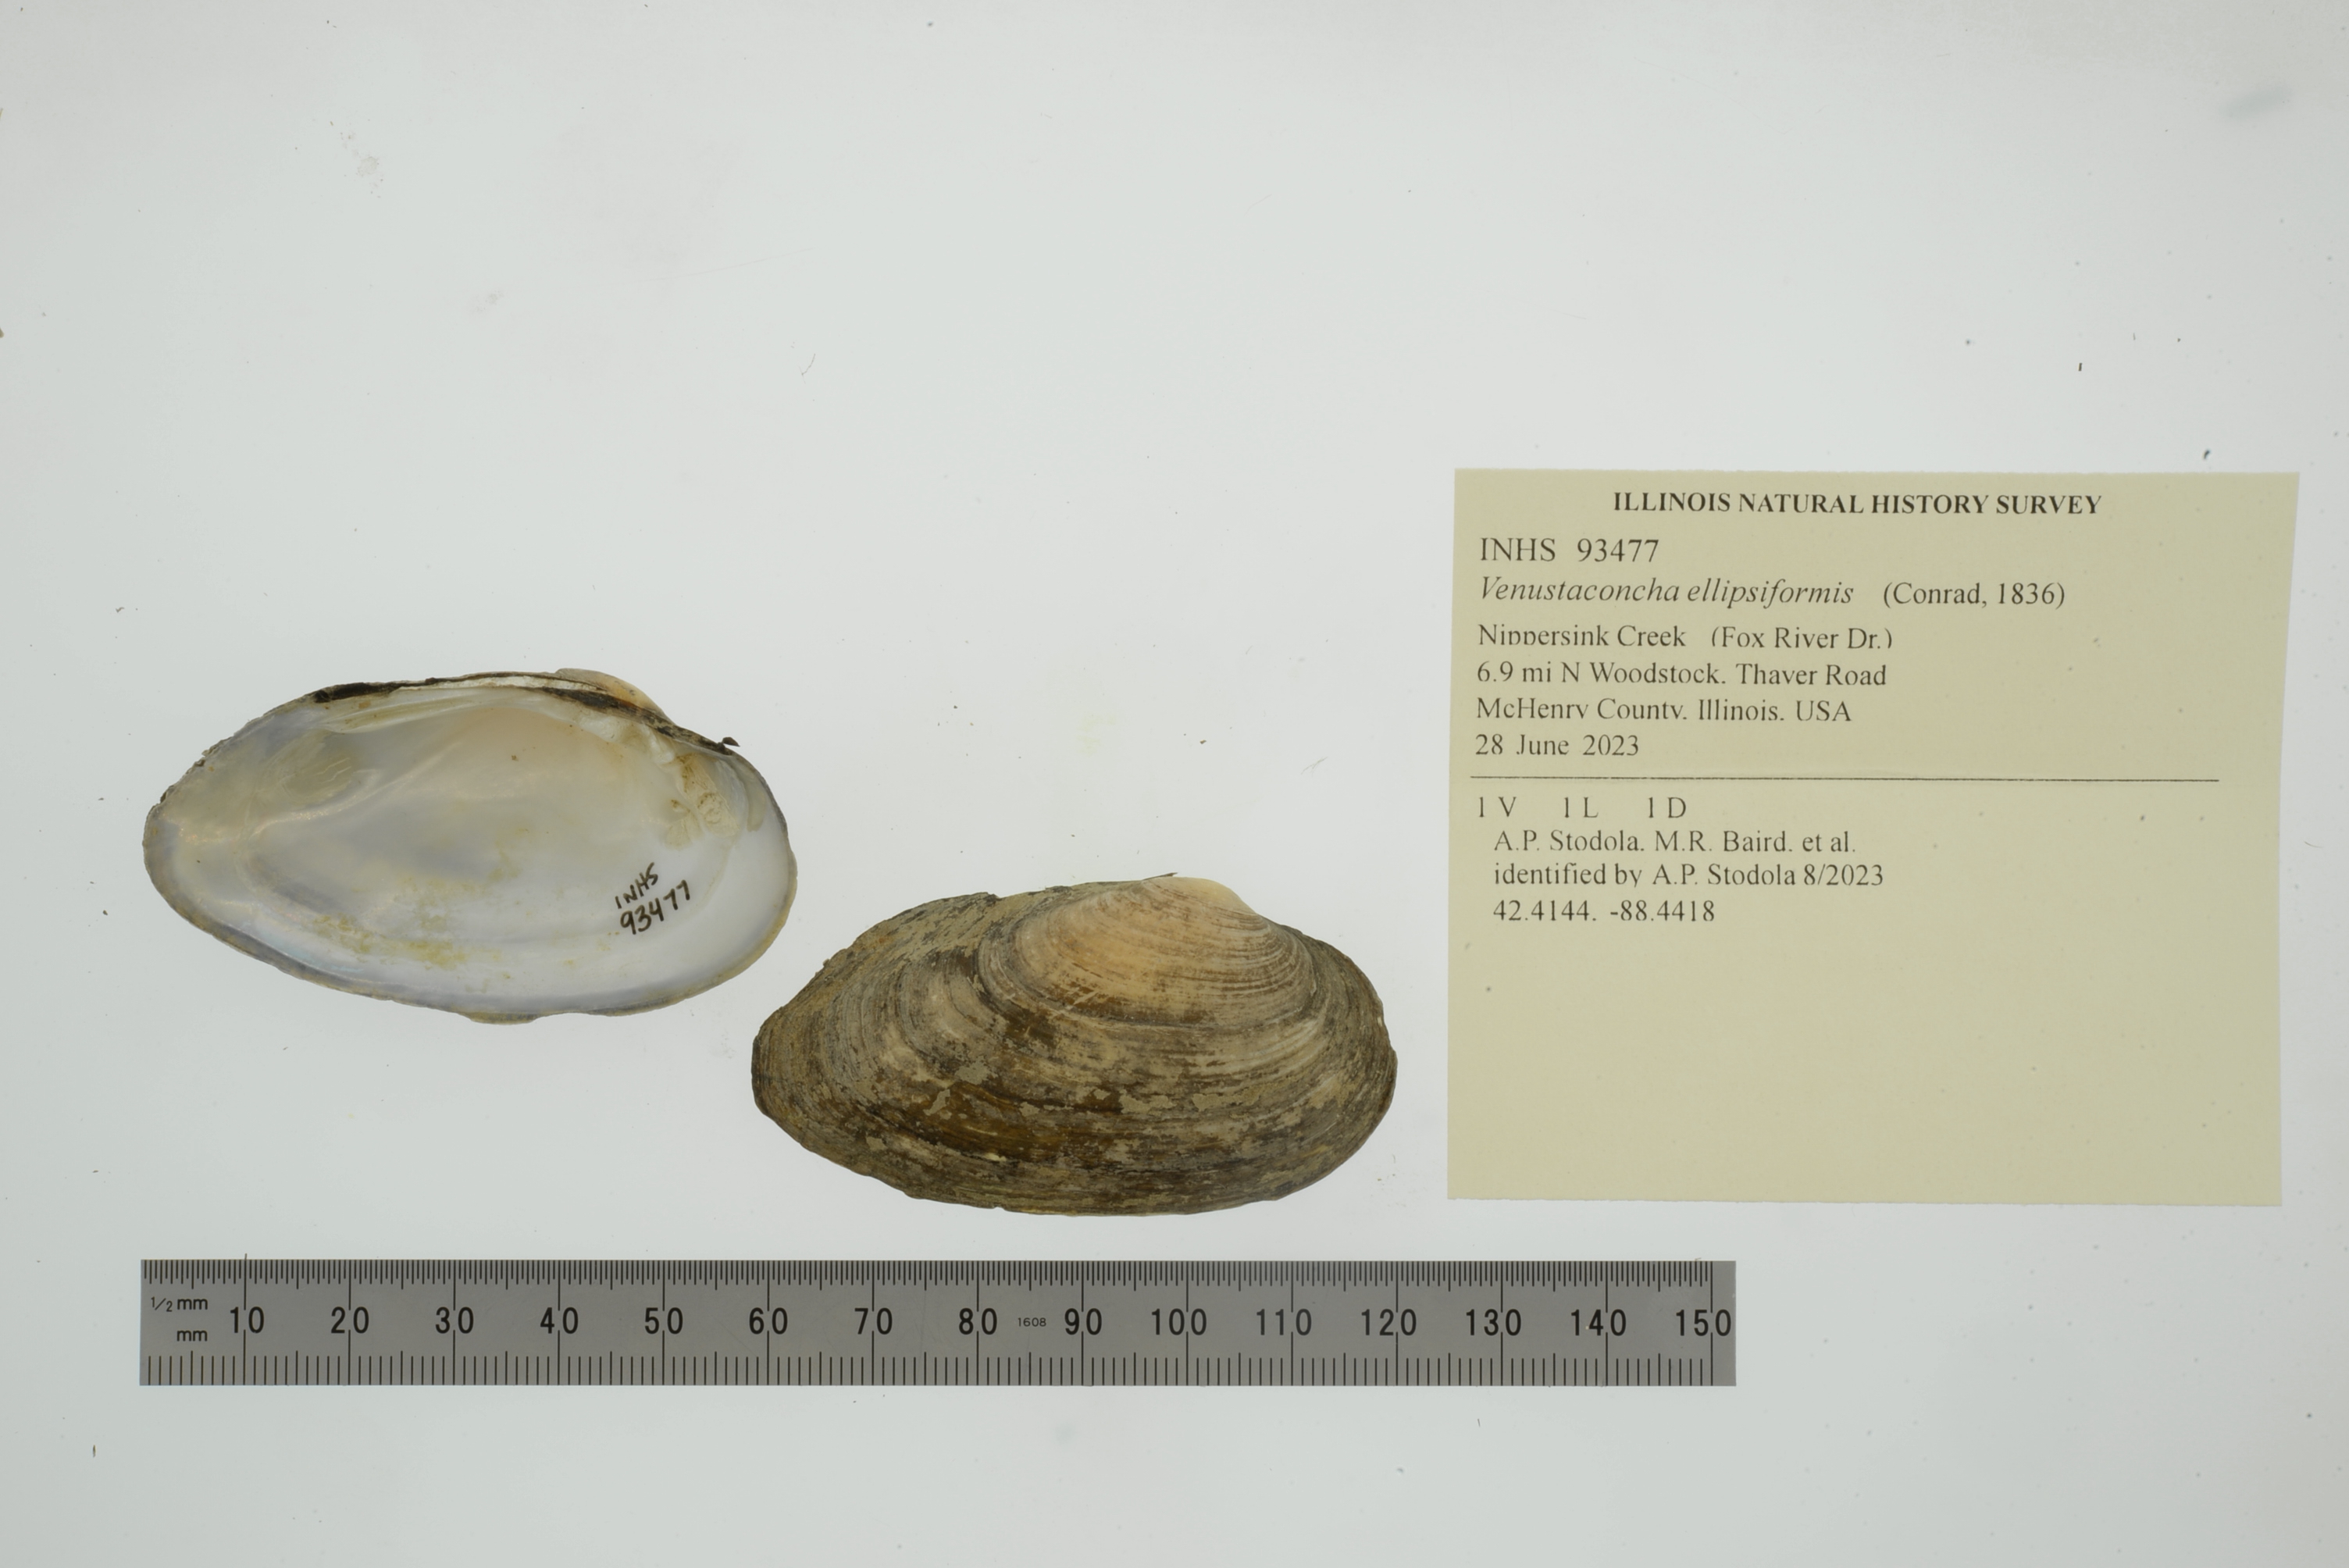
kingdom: Animalia
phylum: Mollusca
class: Bivalvia
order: Unionida
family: Unionidae
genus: Venustaconcha
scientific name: Venustaconcha ellipsiformis
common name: Ellipse
